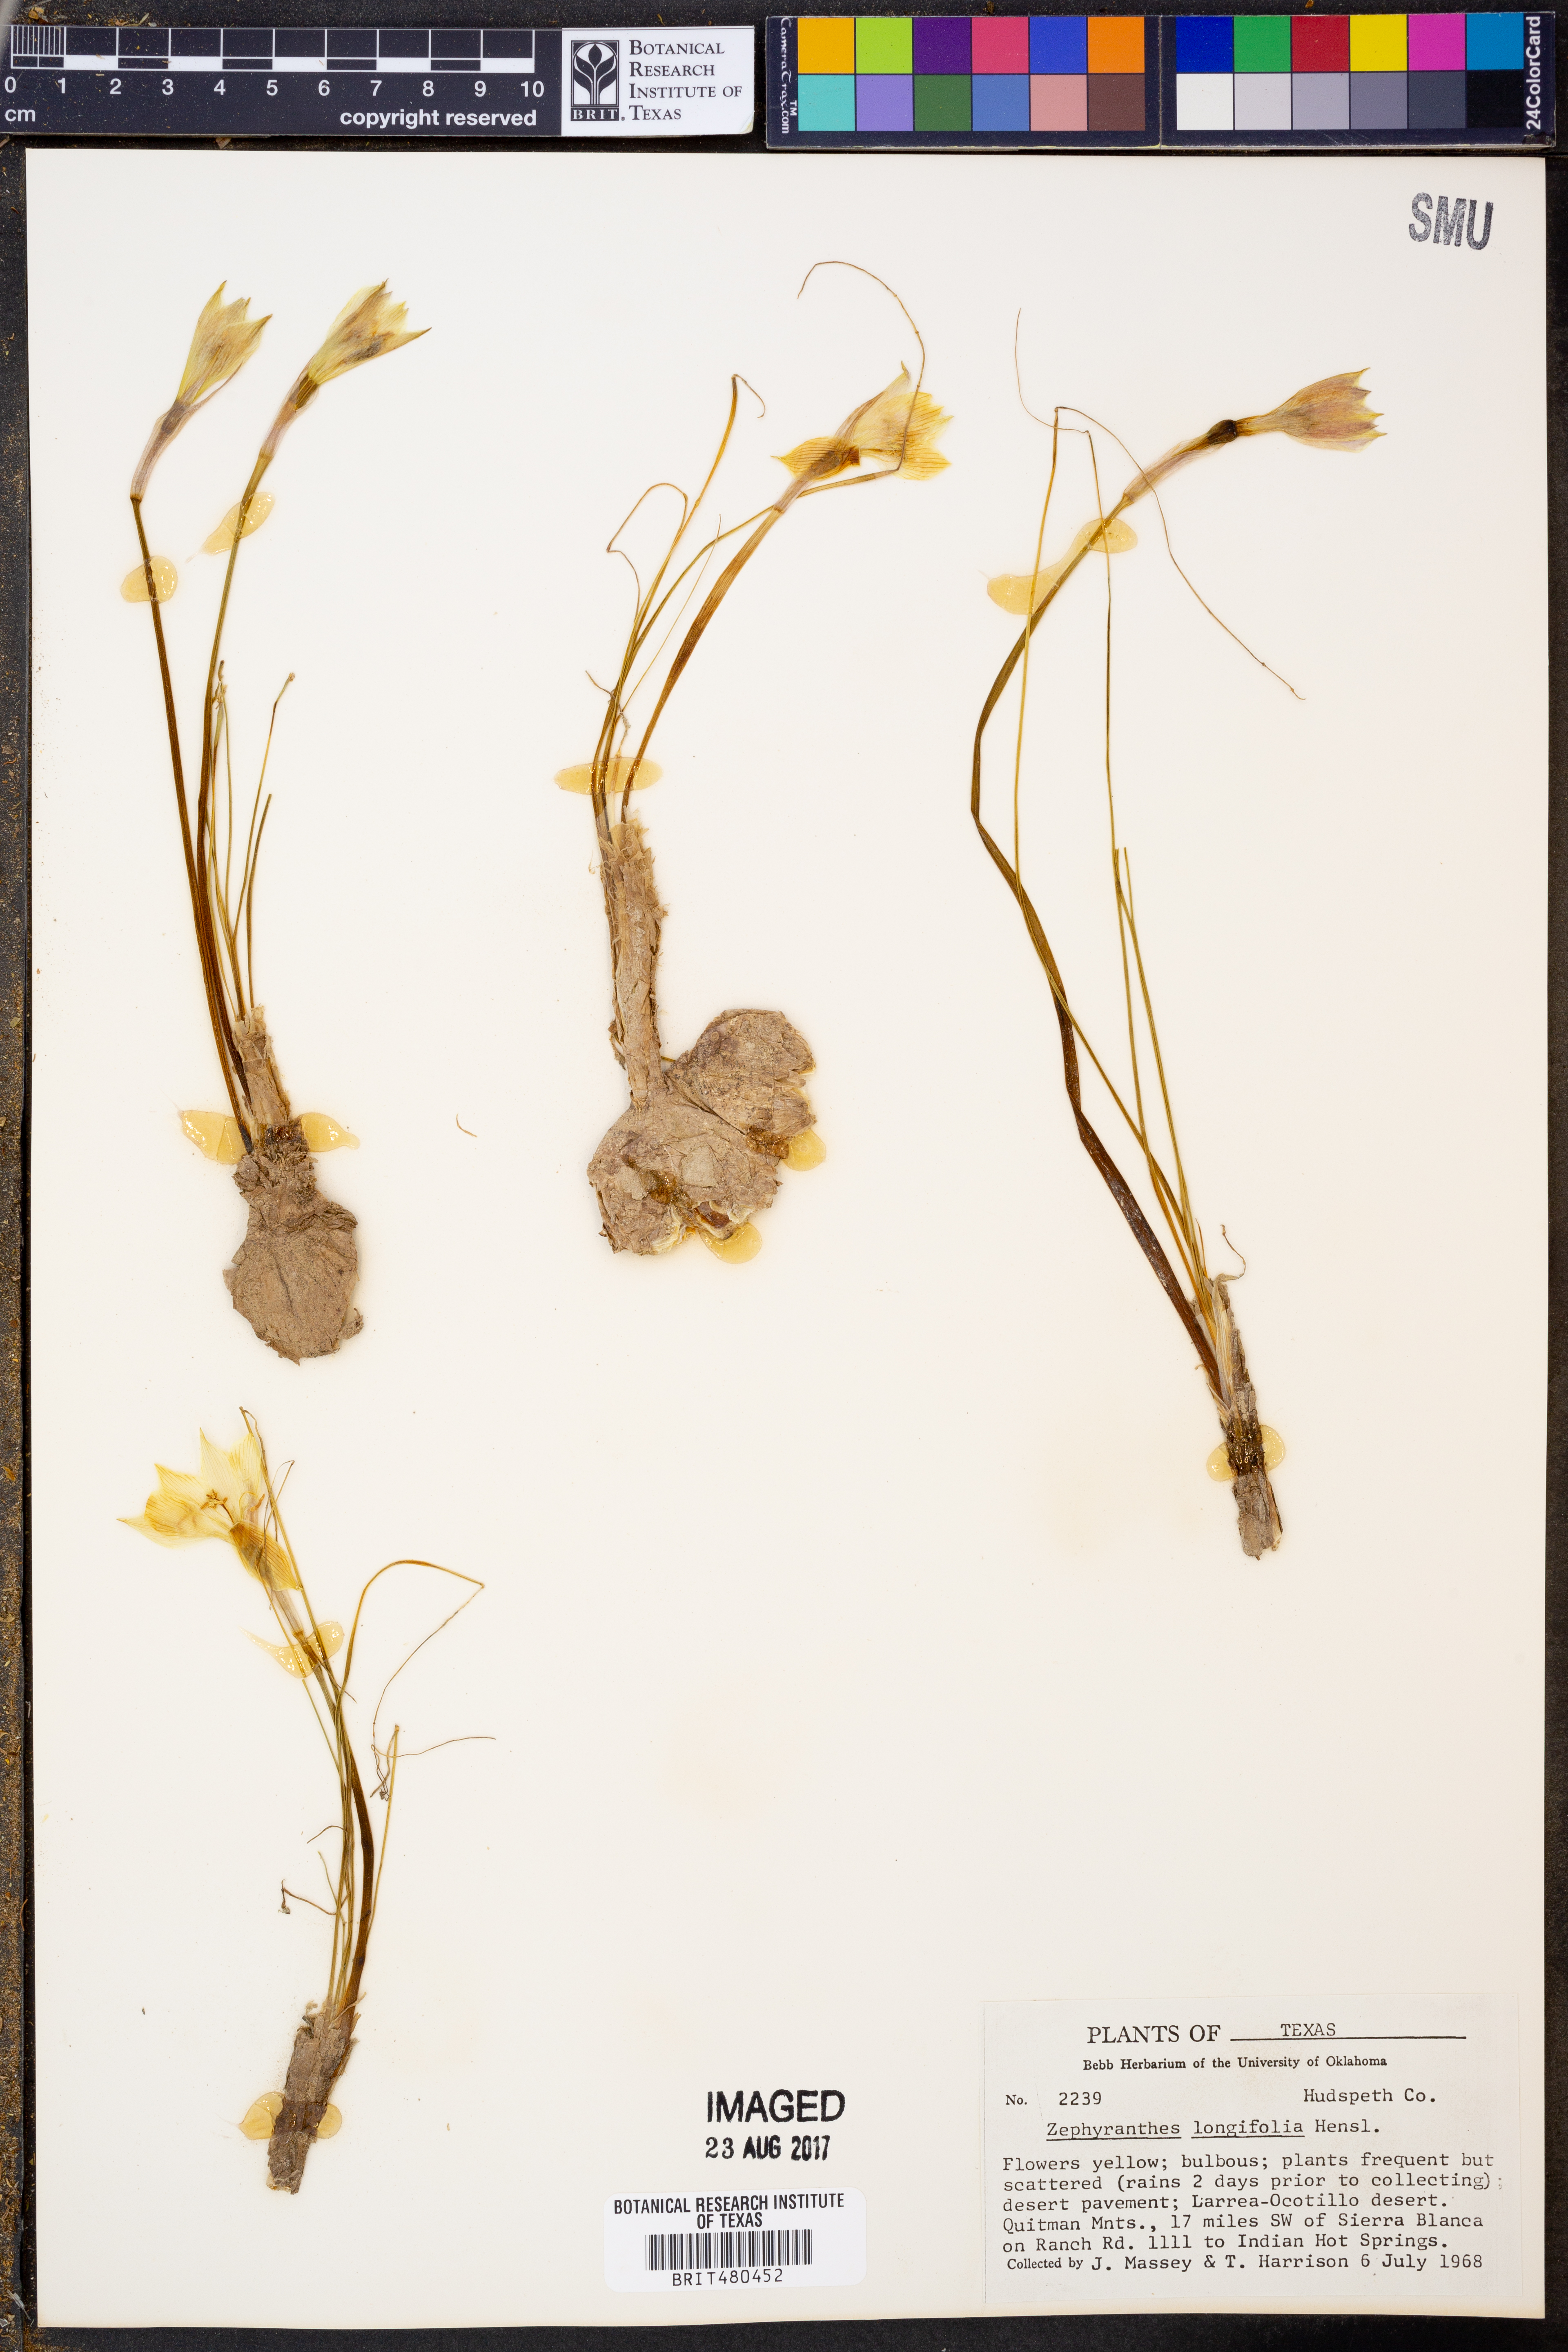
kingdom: Plantae
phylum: Tracheophyta
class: Liliopsida
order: Asparagales
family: Amaryllidaceae
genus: Zephyranthes
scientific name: Zephyranthes longifolia
